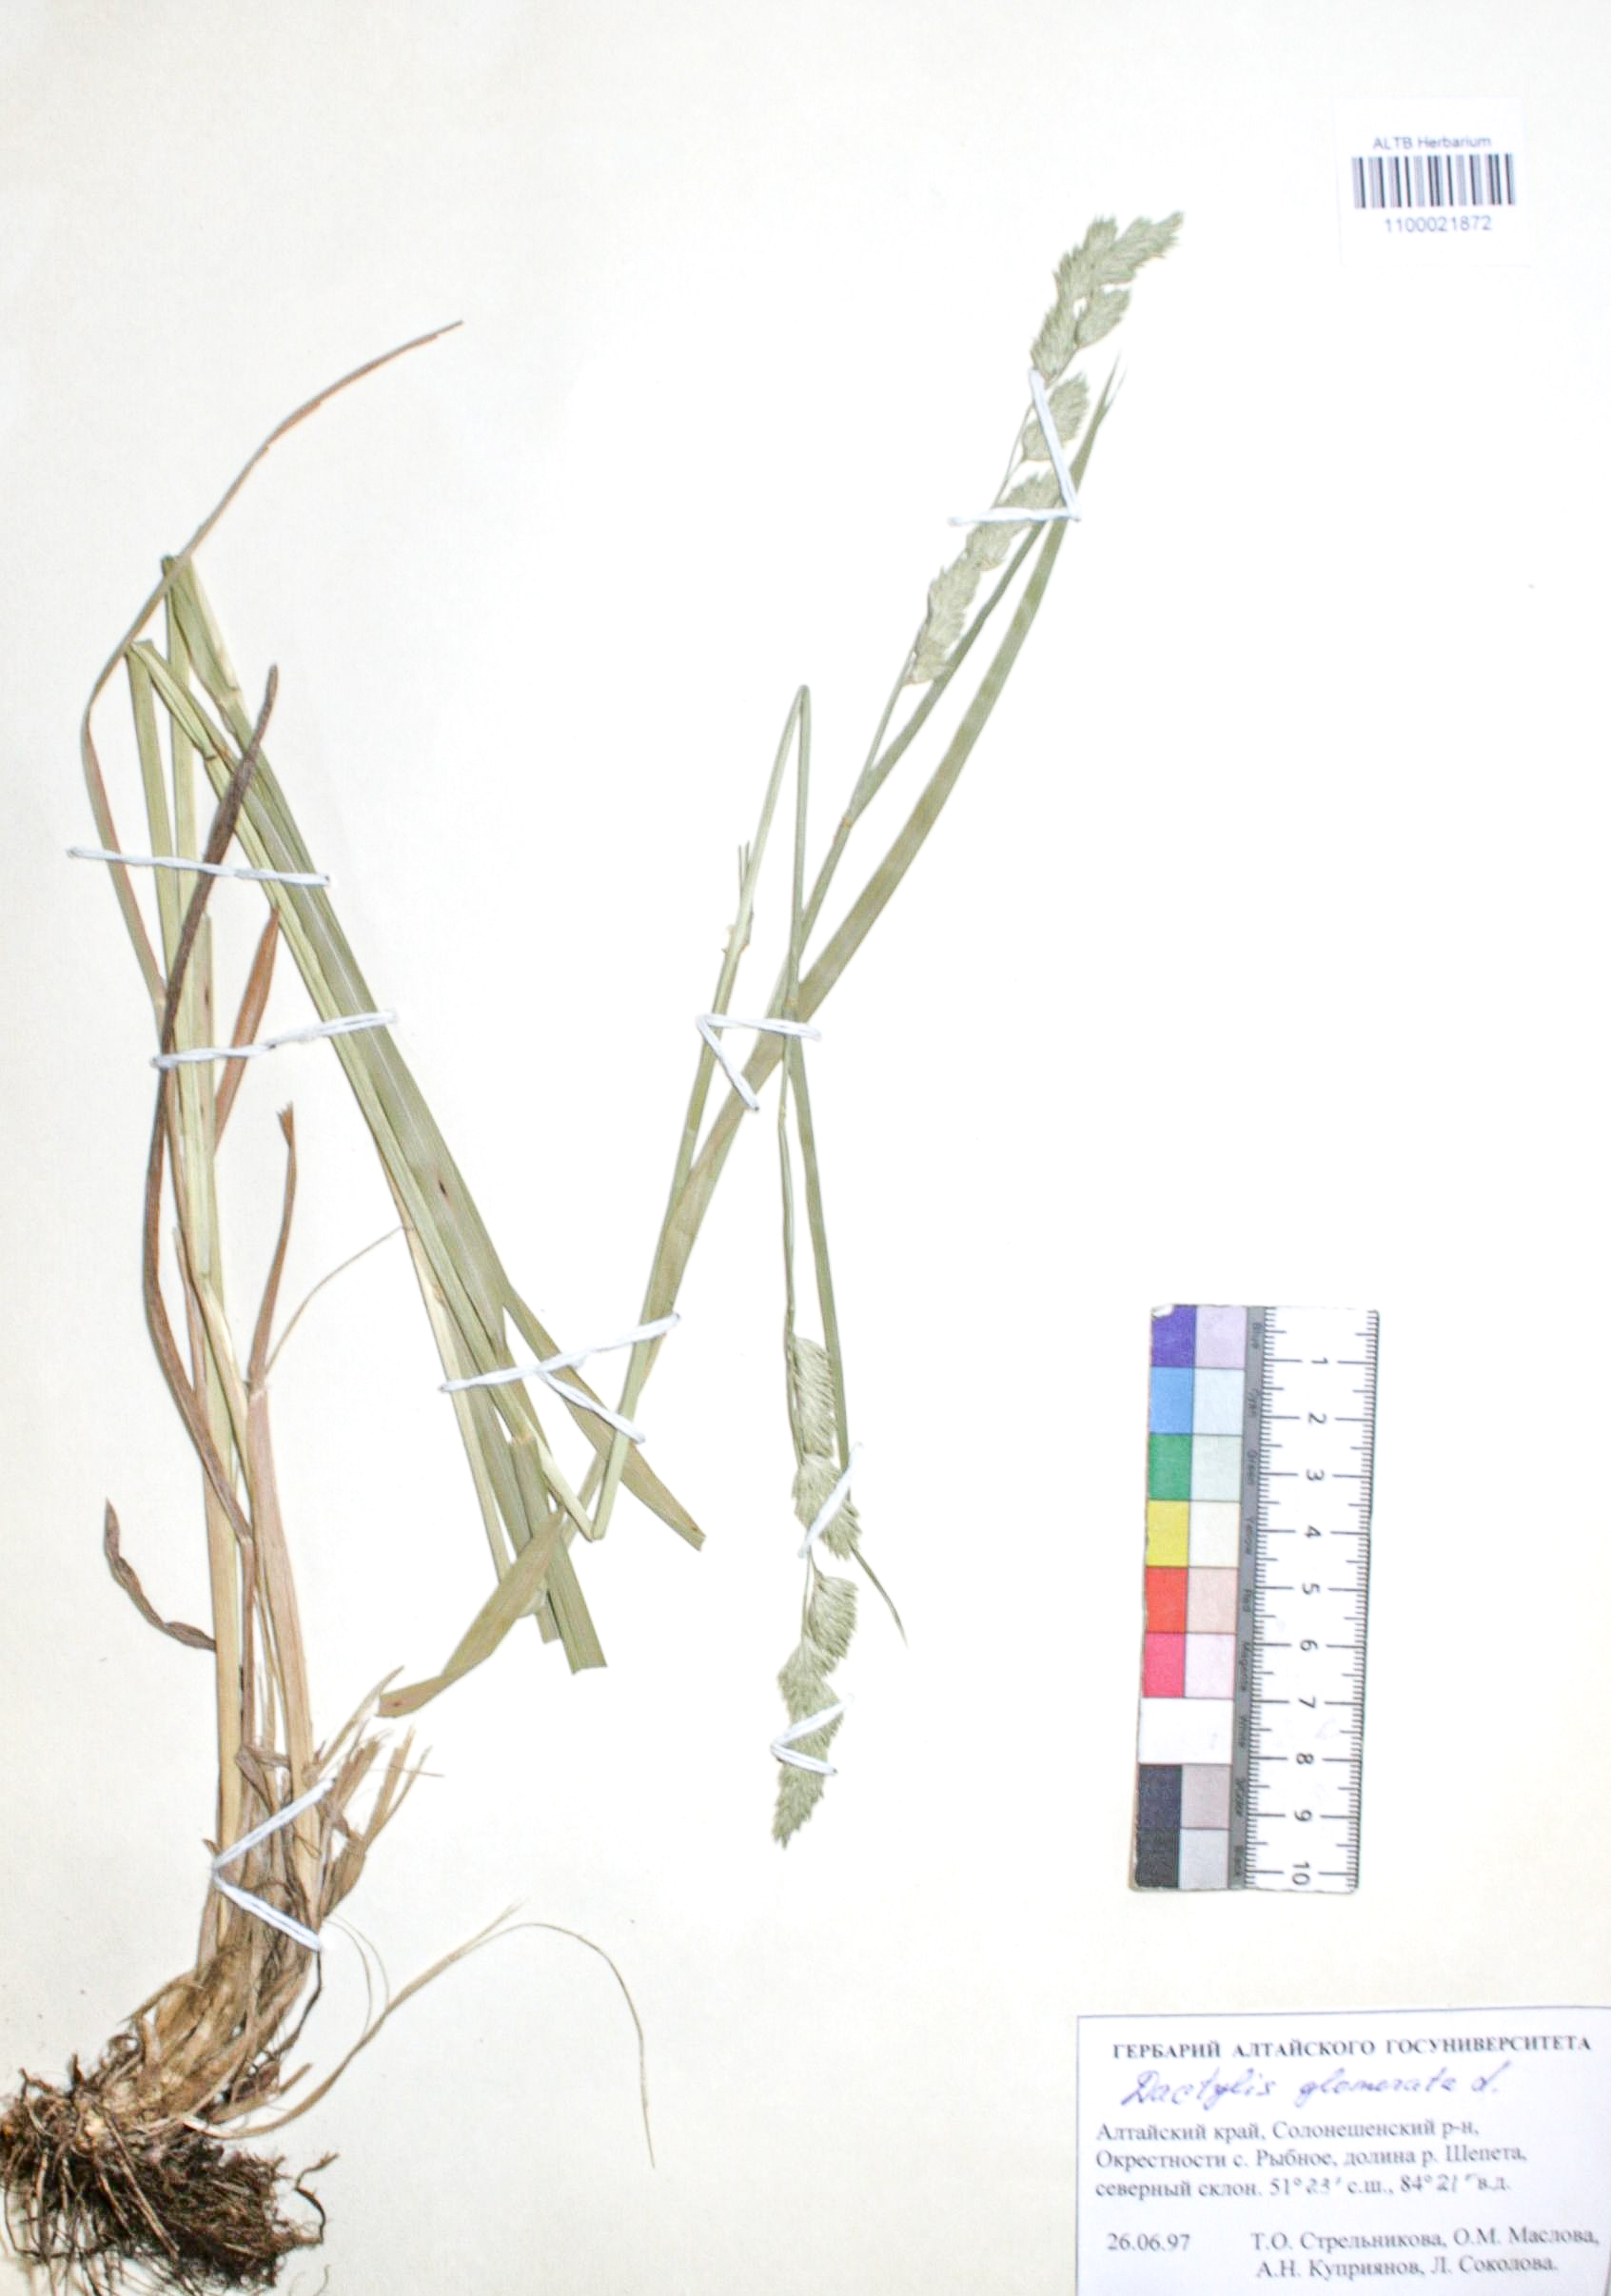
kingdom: Plantae
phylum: Tracheophyta
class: Liliopsida
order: Poales
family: Poaceae
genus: Dactylis
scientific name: Dactylis glomerata
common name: Orchardgrass
